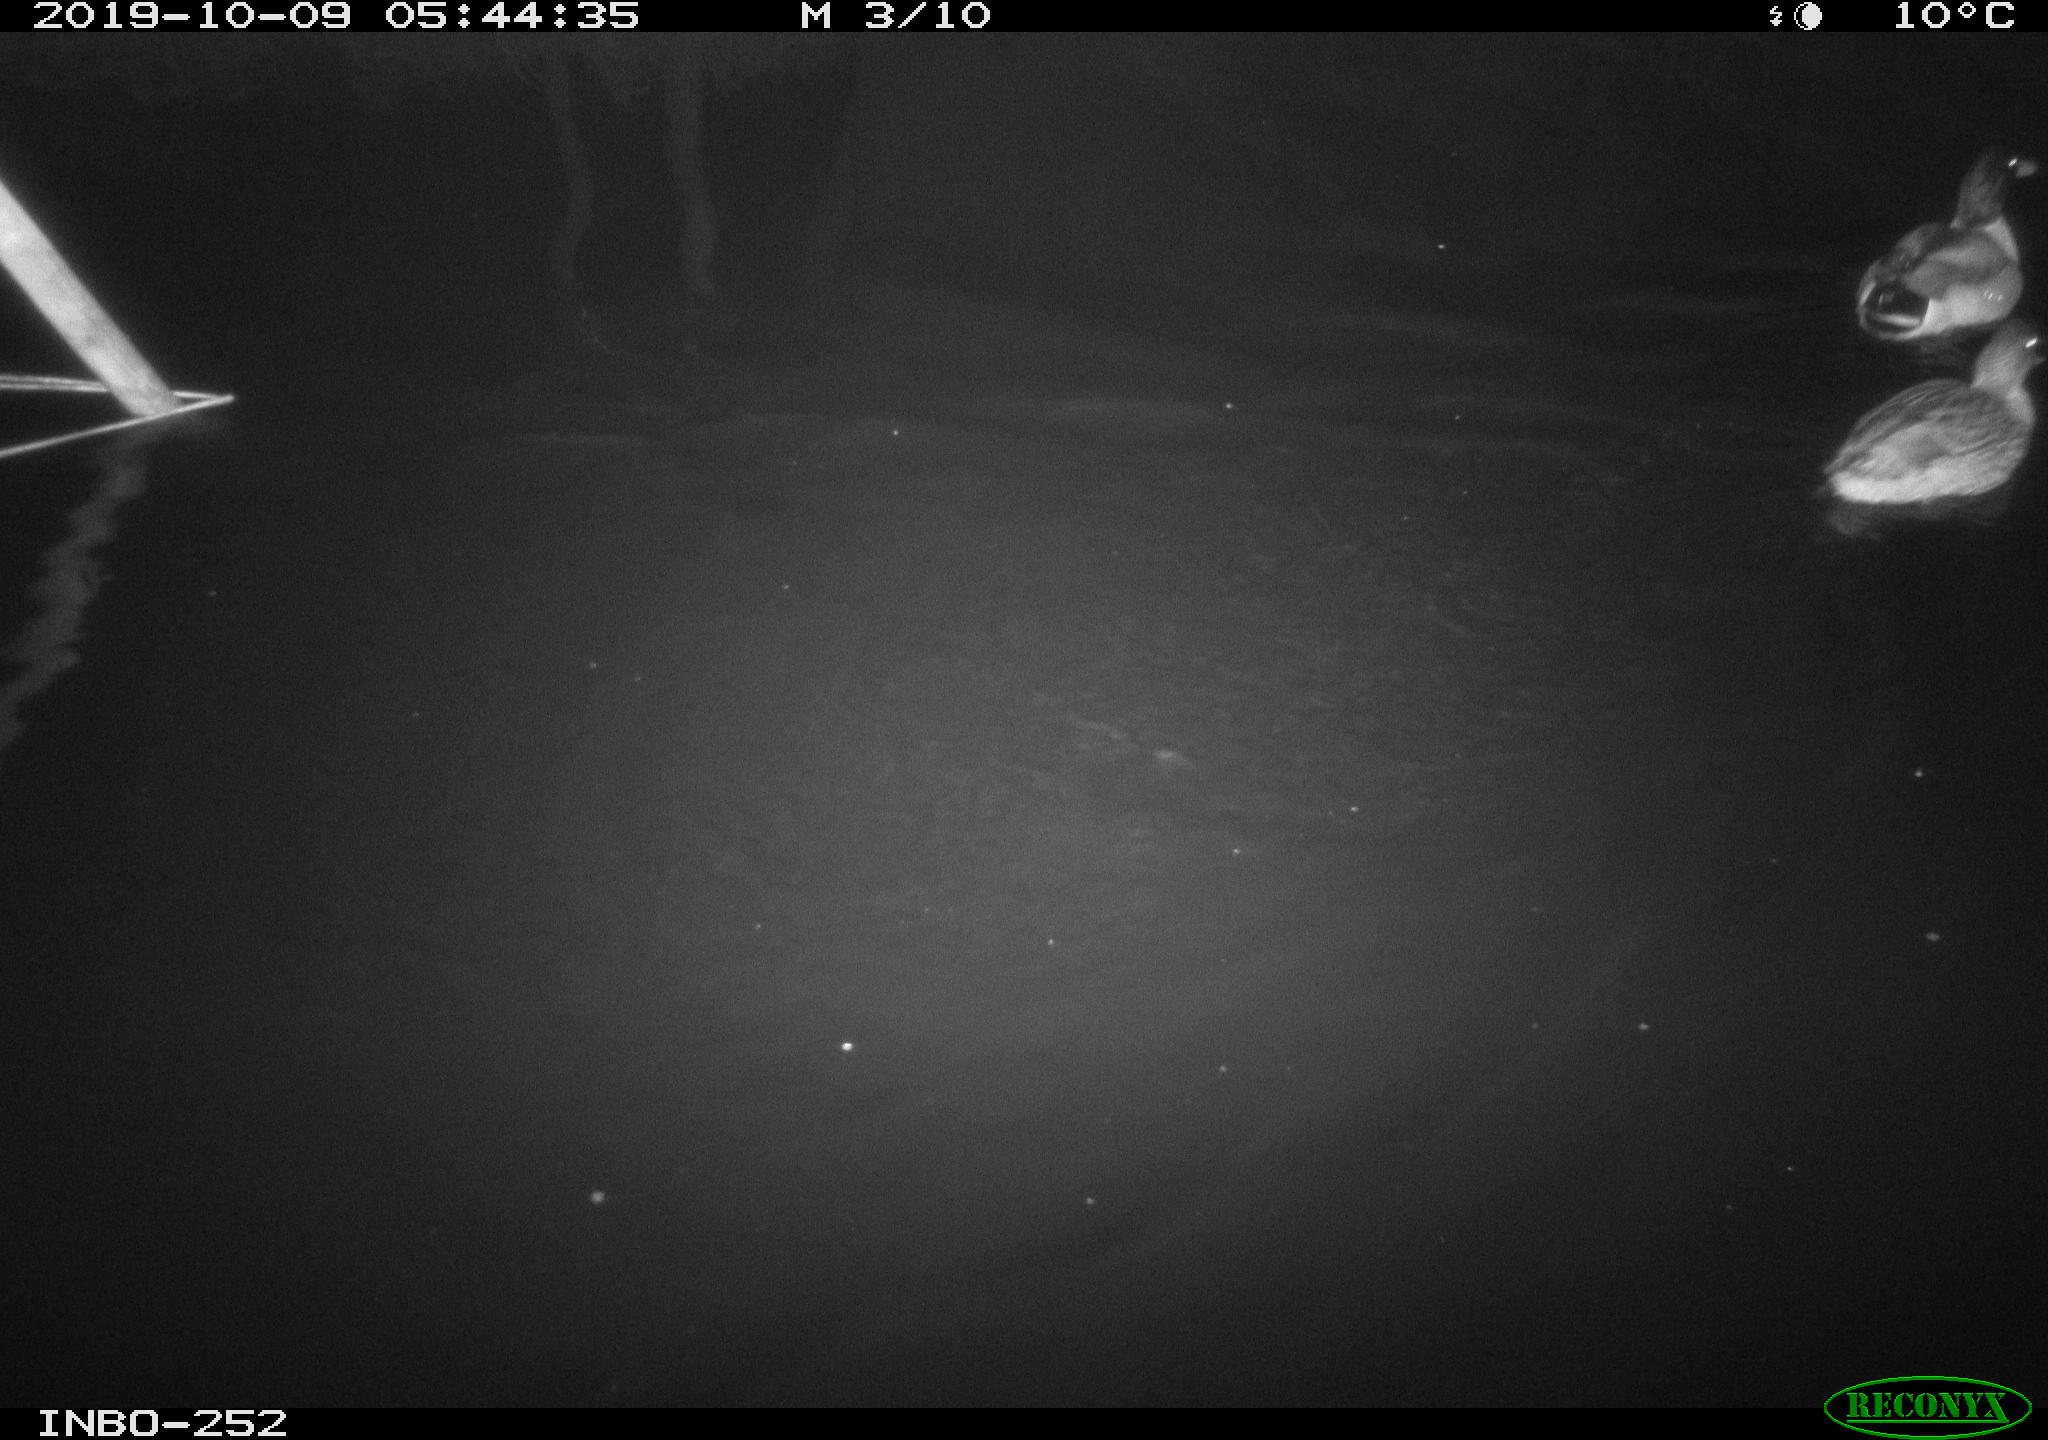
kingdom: Animalia
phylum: Chordata
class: Aves
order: Anseriformes
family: Anatidae
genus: Anas
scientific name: Anas platyrhynchos
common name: Mallard
